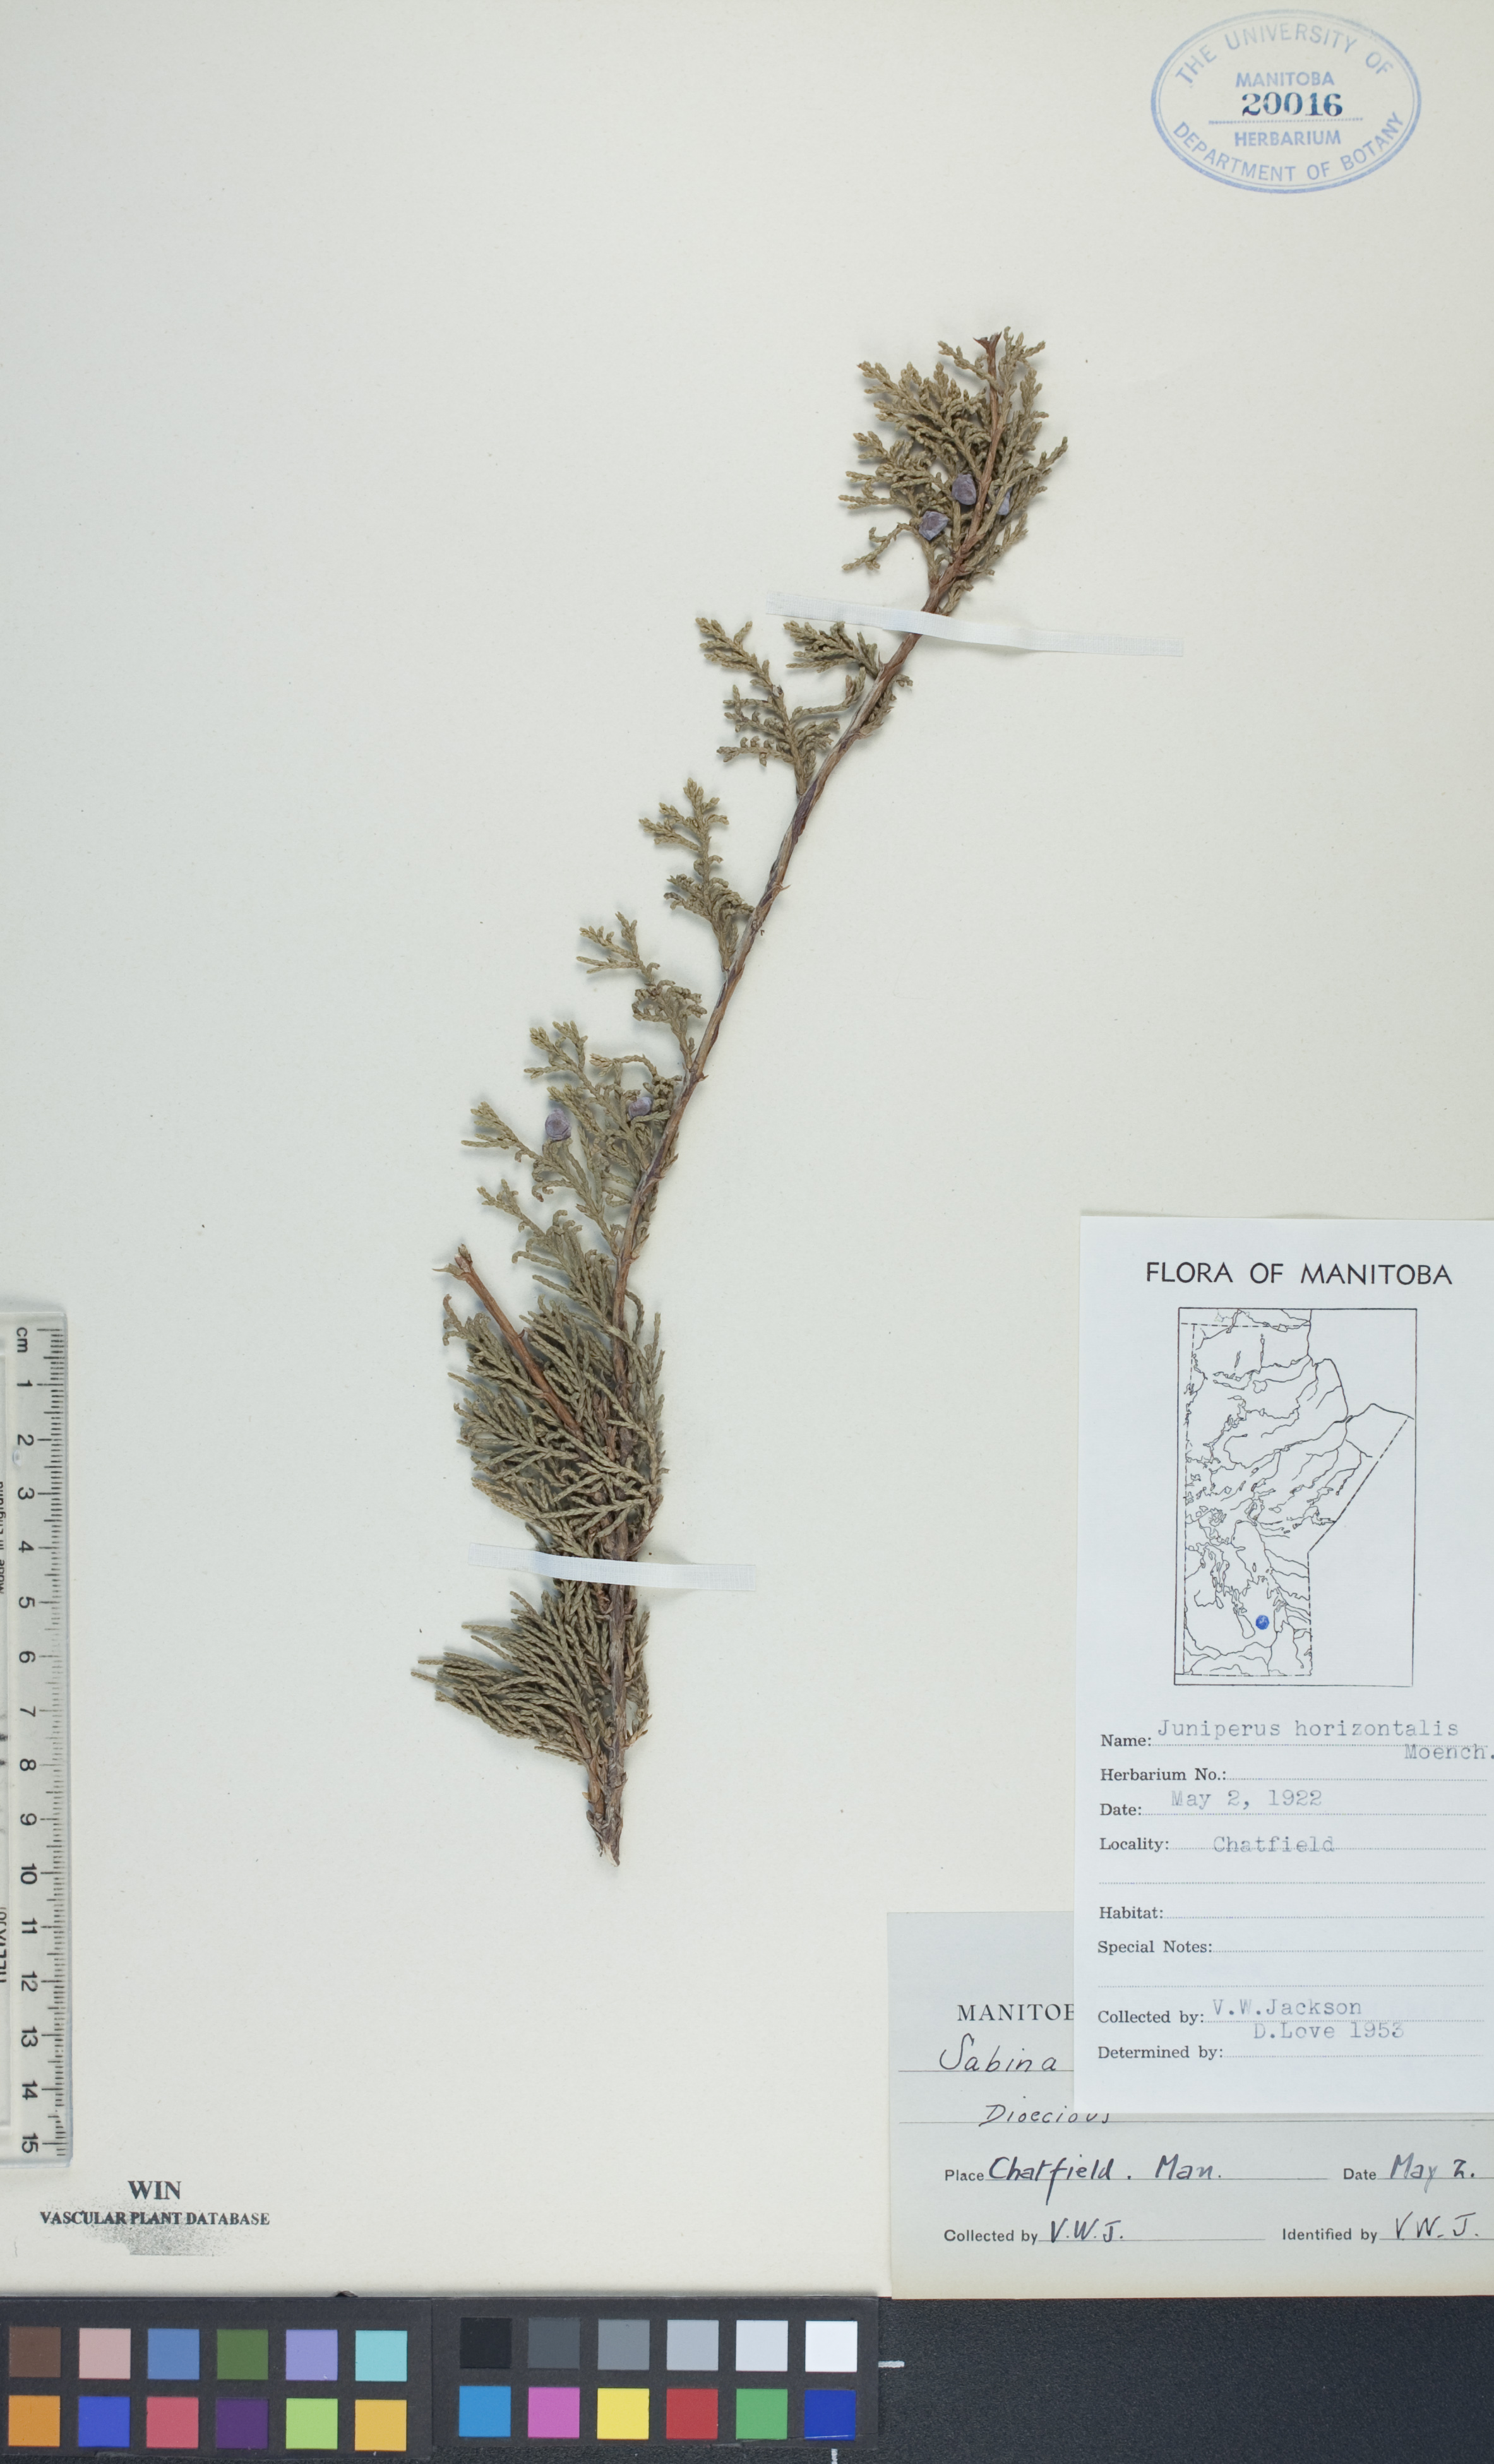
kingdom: Plantae
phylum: Tracheophyta
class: Pinopsida
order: Pinales
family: Cupressaceae
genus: Juniperus
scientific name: Juniperus horizontalis
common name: Creeping juniper
